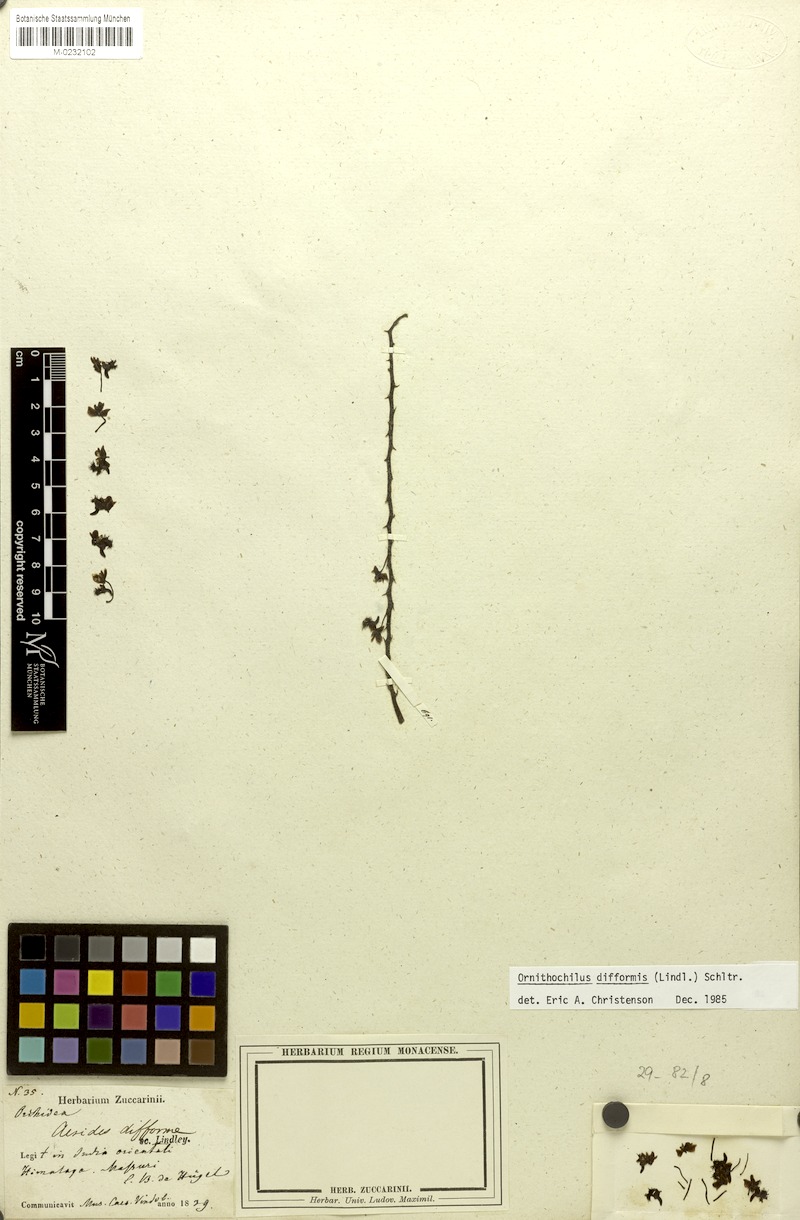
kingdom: Plantae
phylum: Tracheophyta
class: Liliopsida
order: Asparagales
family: Orchidaceae
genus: Phalaenopsis
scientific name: Phalaenopsis difformis
